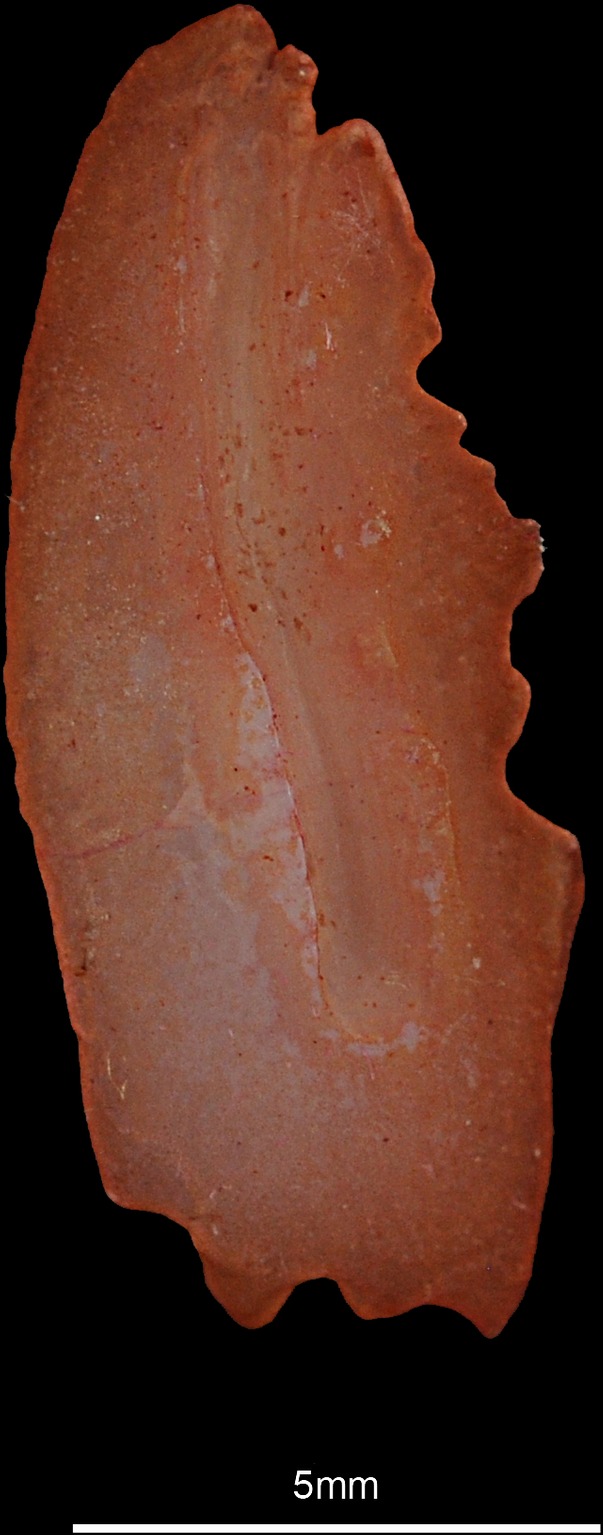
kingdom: Animalia
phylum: Chordata
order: Perciformes
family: Trachinidae
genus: Echiichthys
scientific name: Echiichthys vipera
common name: Lesser weever
